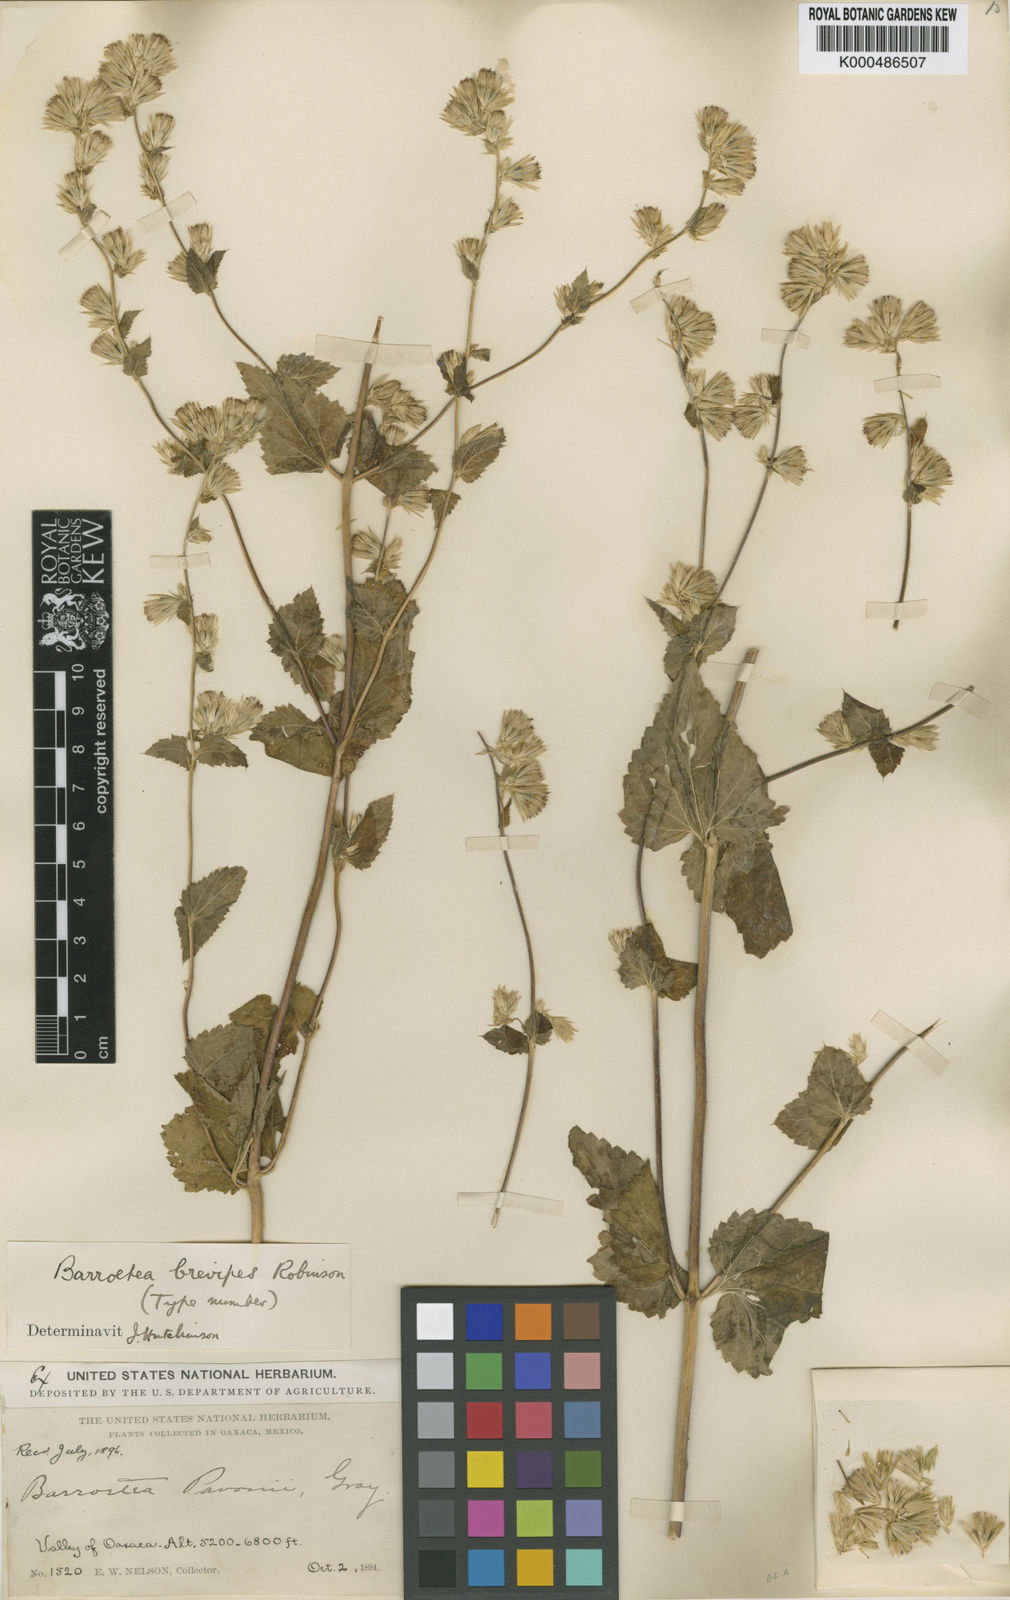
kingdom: Plantae
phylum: Tracheophyta
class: Magnoliopsida
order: Asterales
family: Asteraceae
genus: Brickellia
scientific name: Brickellia laxiflora
